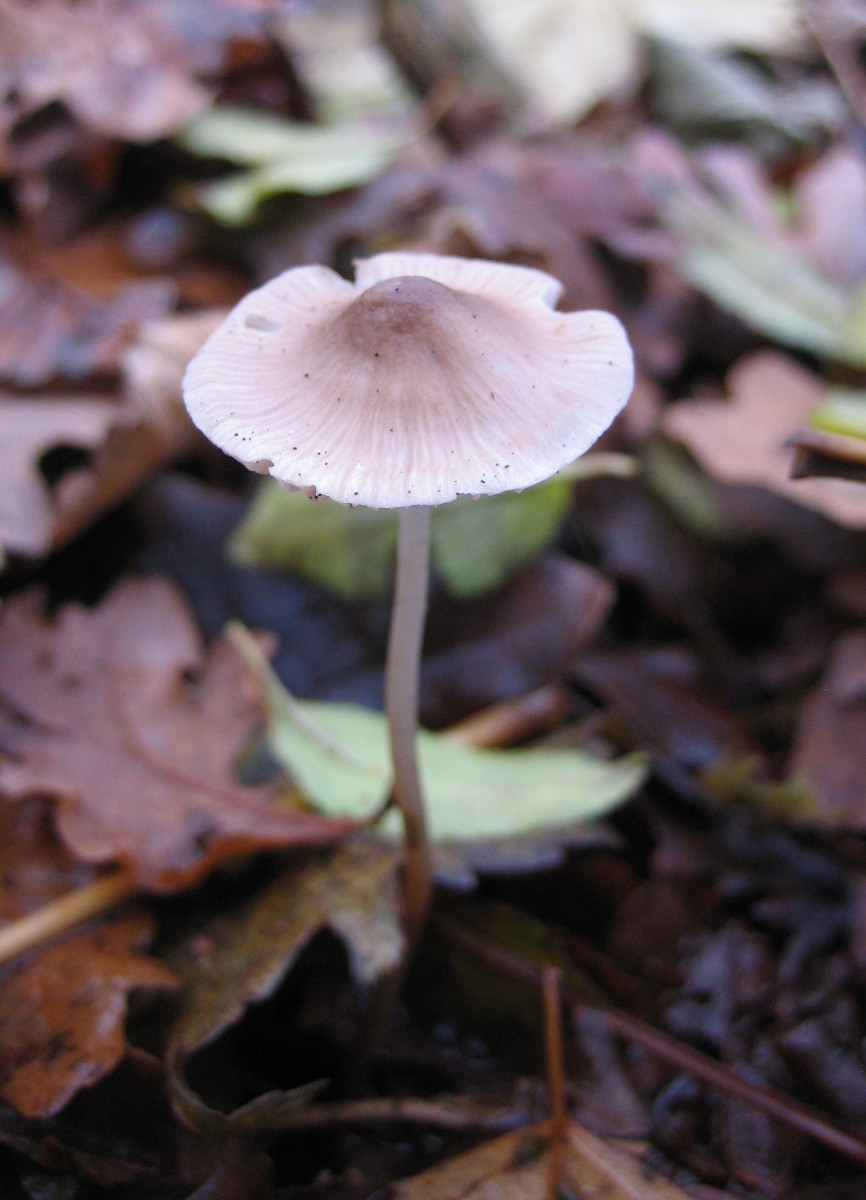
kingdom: Fungi
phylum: Basidiomycota
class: Agaricomycetes
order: Agaricales
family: Mycenaceae
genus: Mycena
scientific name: Mycena
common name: huesvamp
